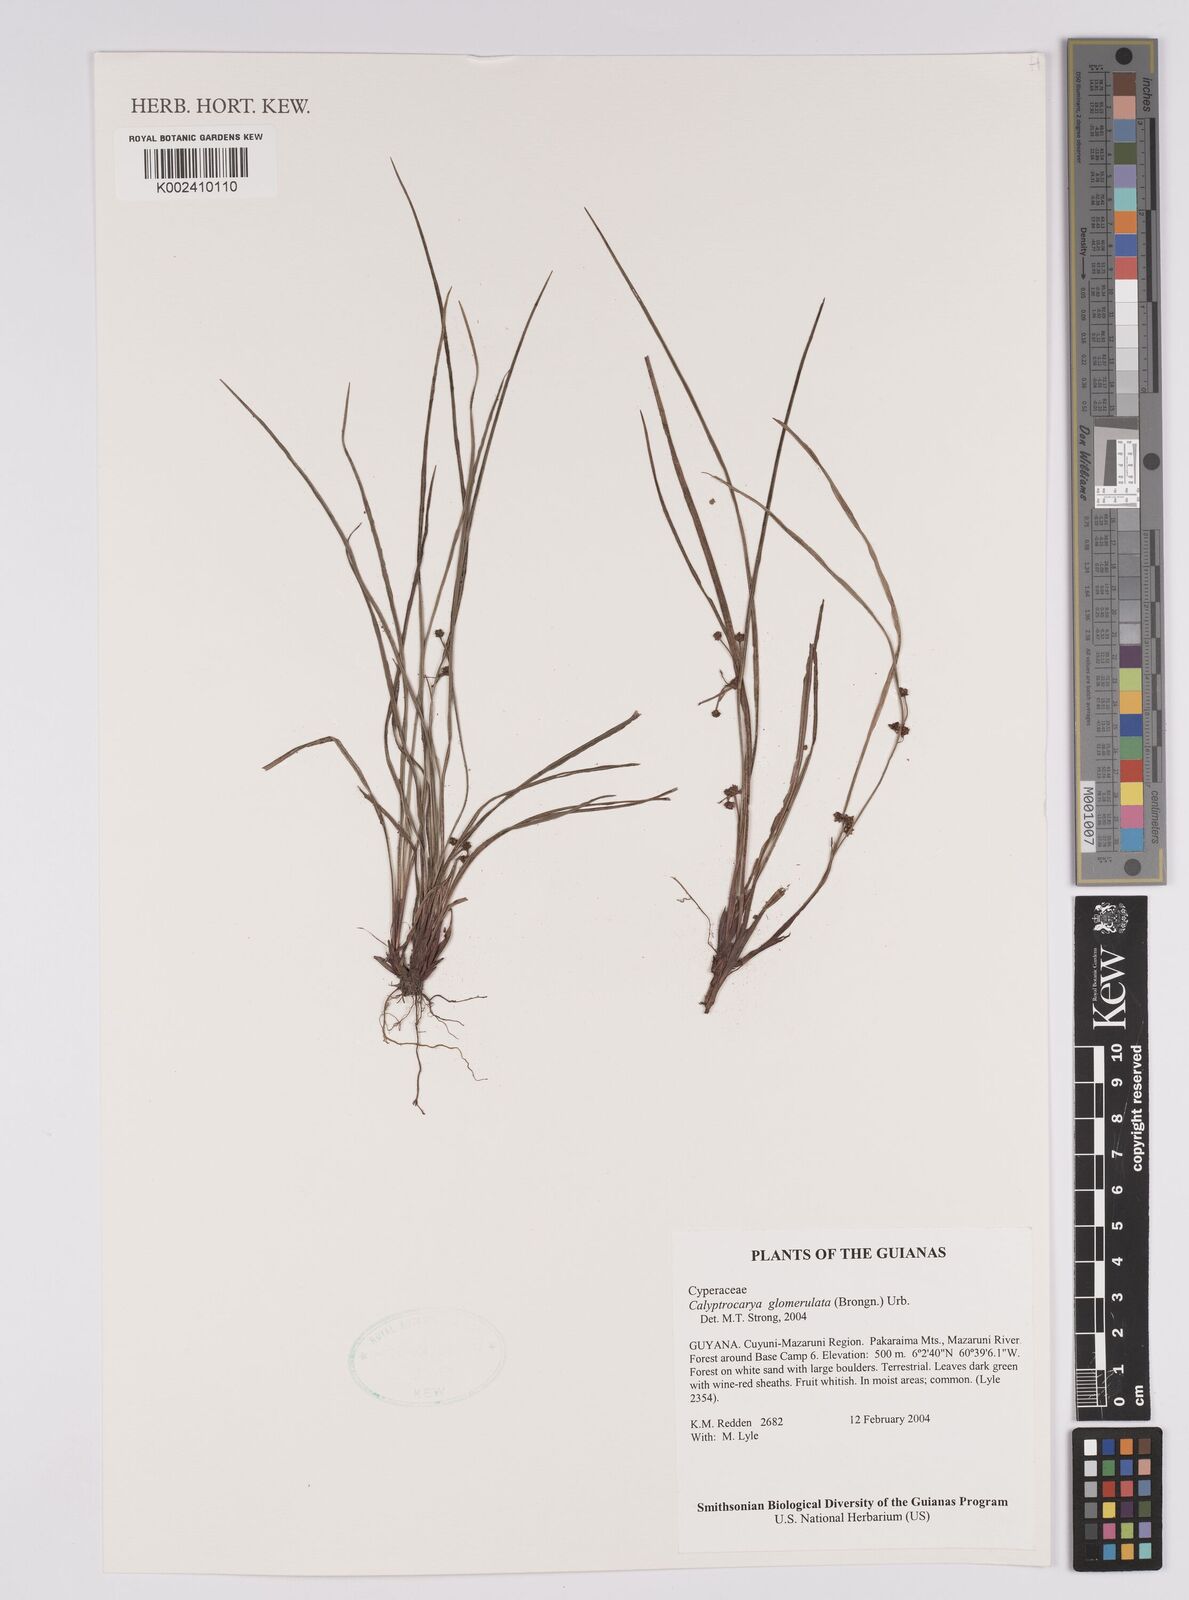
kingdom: Plantae
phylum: Tracheophyta
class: Liliopsida
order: Poales
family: Cyperaceae
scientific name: Cyperaceae
